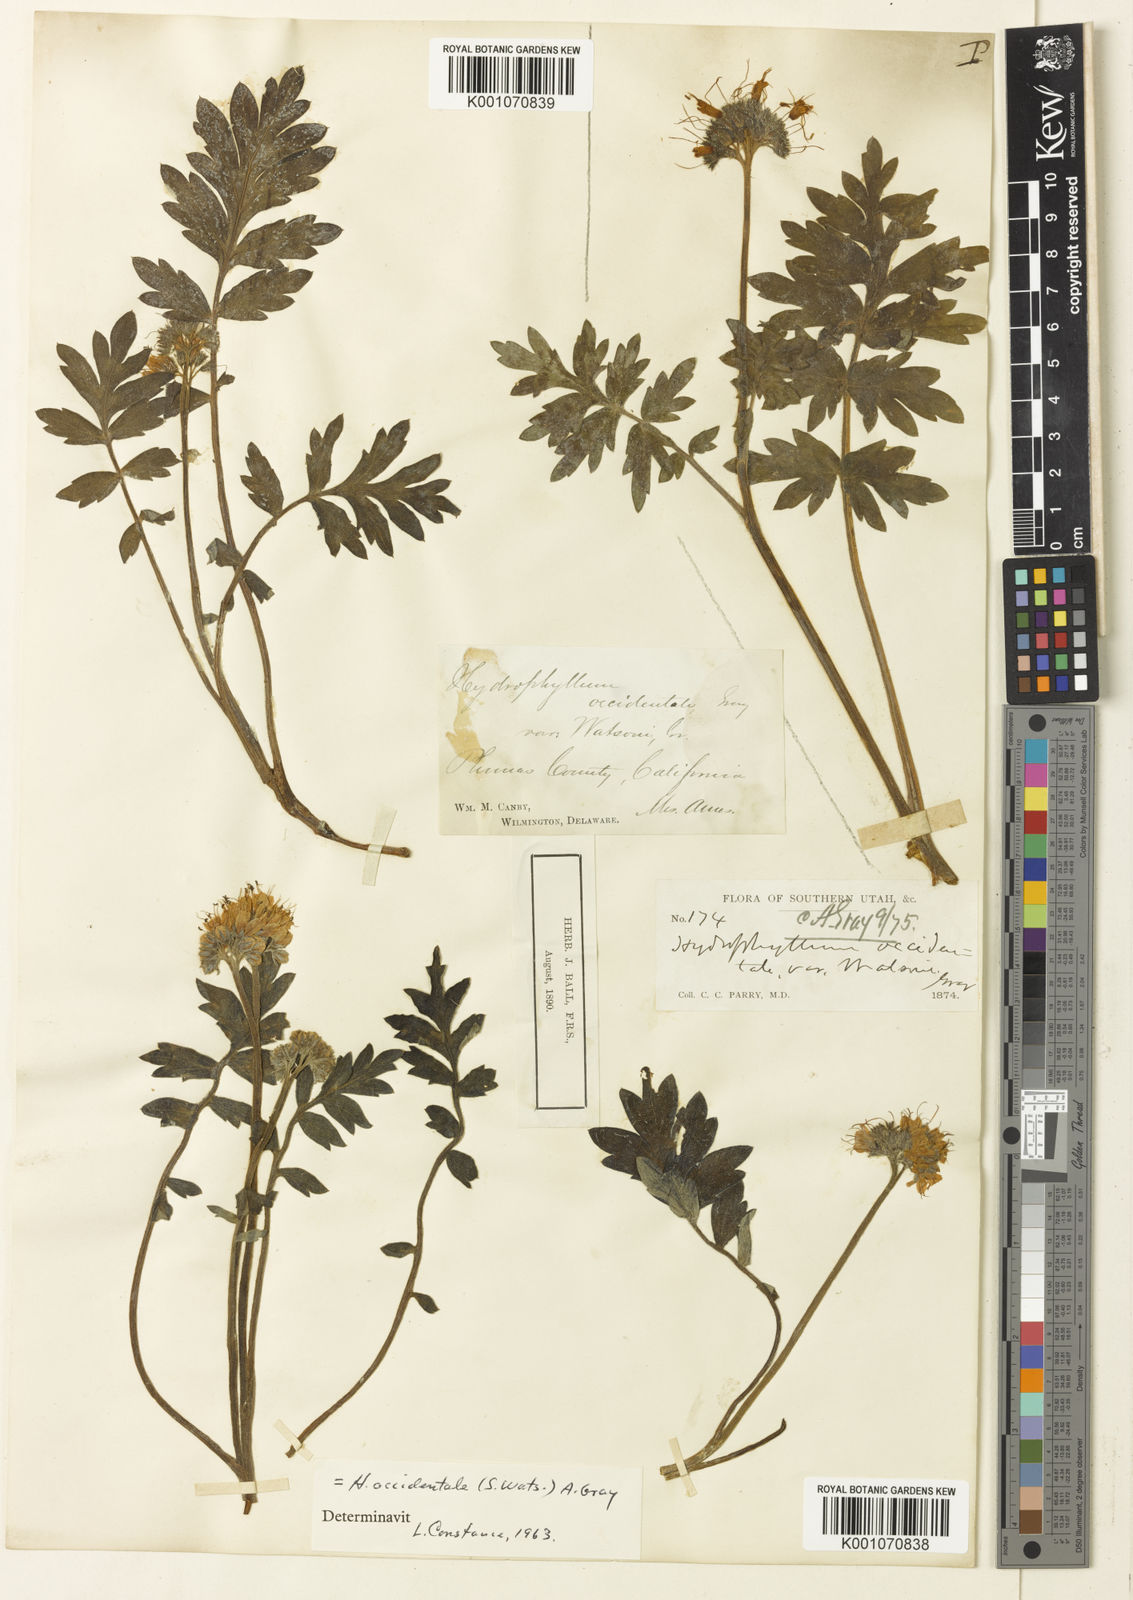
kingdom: Plantae
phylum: Tracheophyta
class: Magnoliopsida
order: Boraginales
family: Hydrophyllaceae
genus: Hydrophyllum
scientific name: Hydrophyllum occidentale
